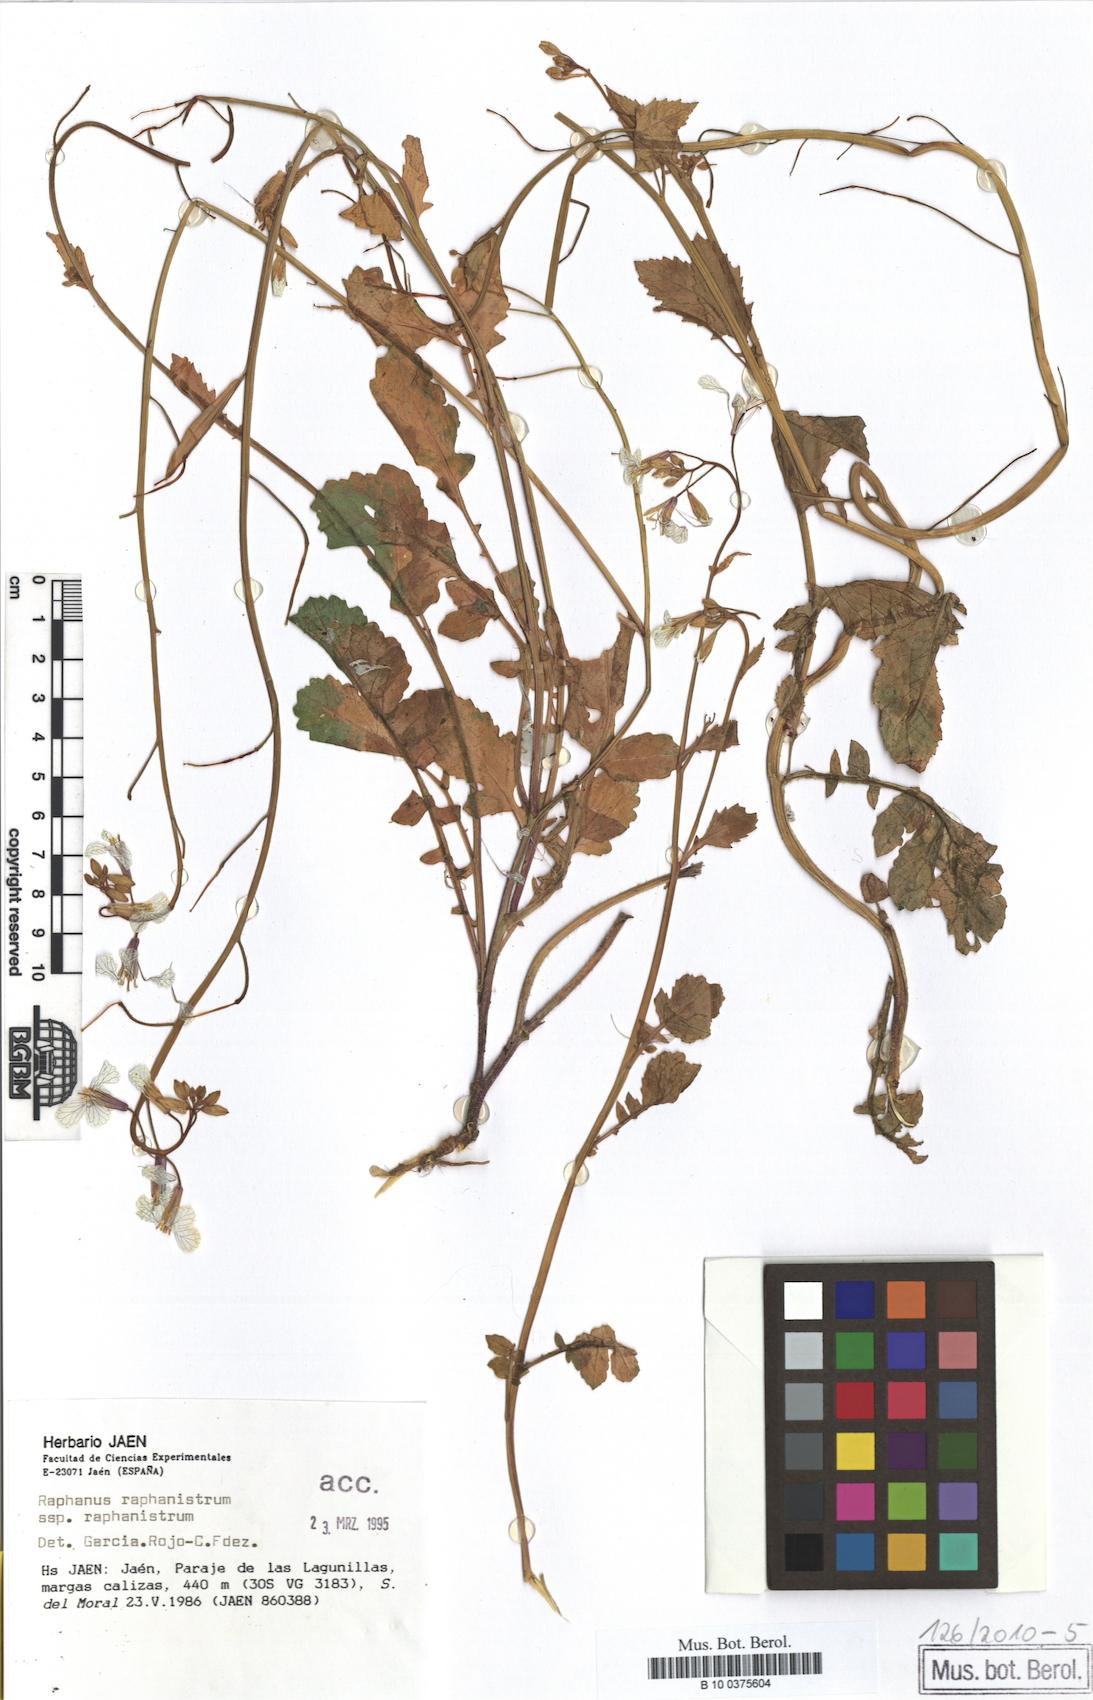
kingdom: Plantae
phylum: Tracheophyta
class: Magnoliopsida
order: Brassicales
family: Brassicaceae
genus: Raphanus
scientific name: Raphanus raphanistrum
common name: Wild radish
